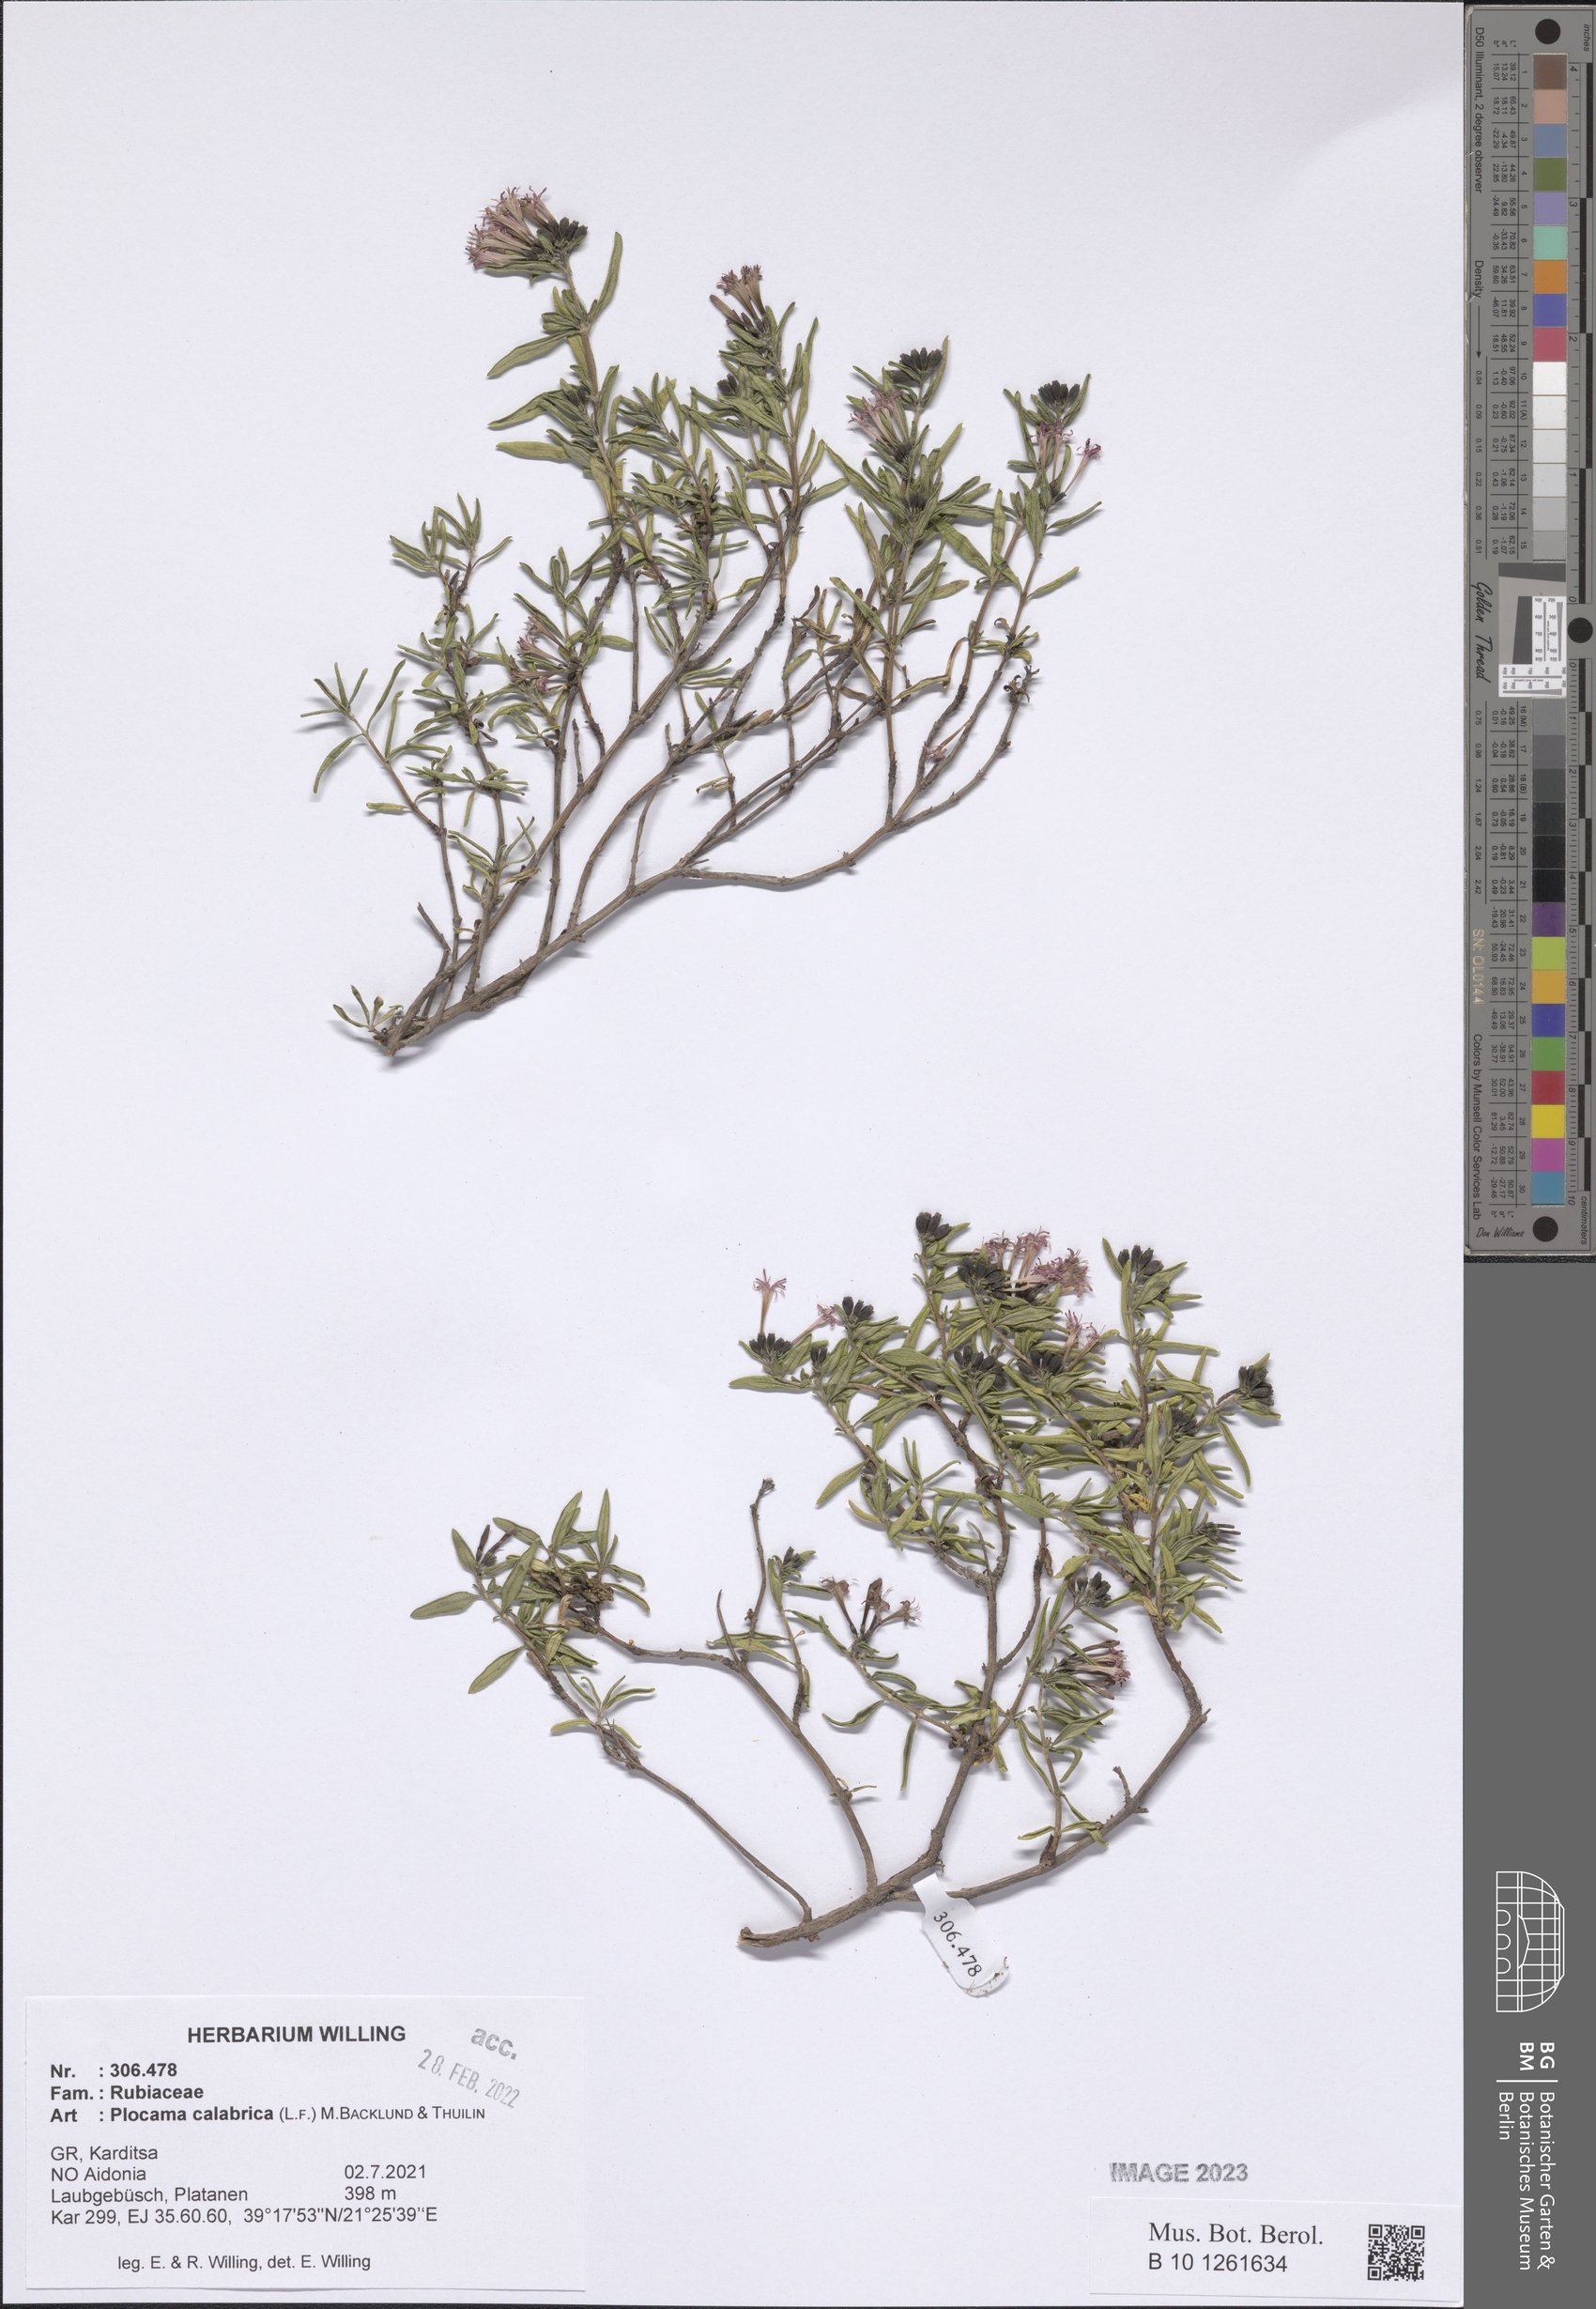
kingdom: Plantae
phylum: Tracheophyta
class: Magnoliopsida
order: Gentianales
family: Rubiaceae
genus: Plocama
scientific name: Plocama calabrica
